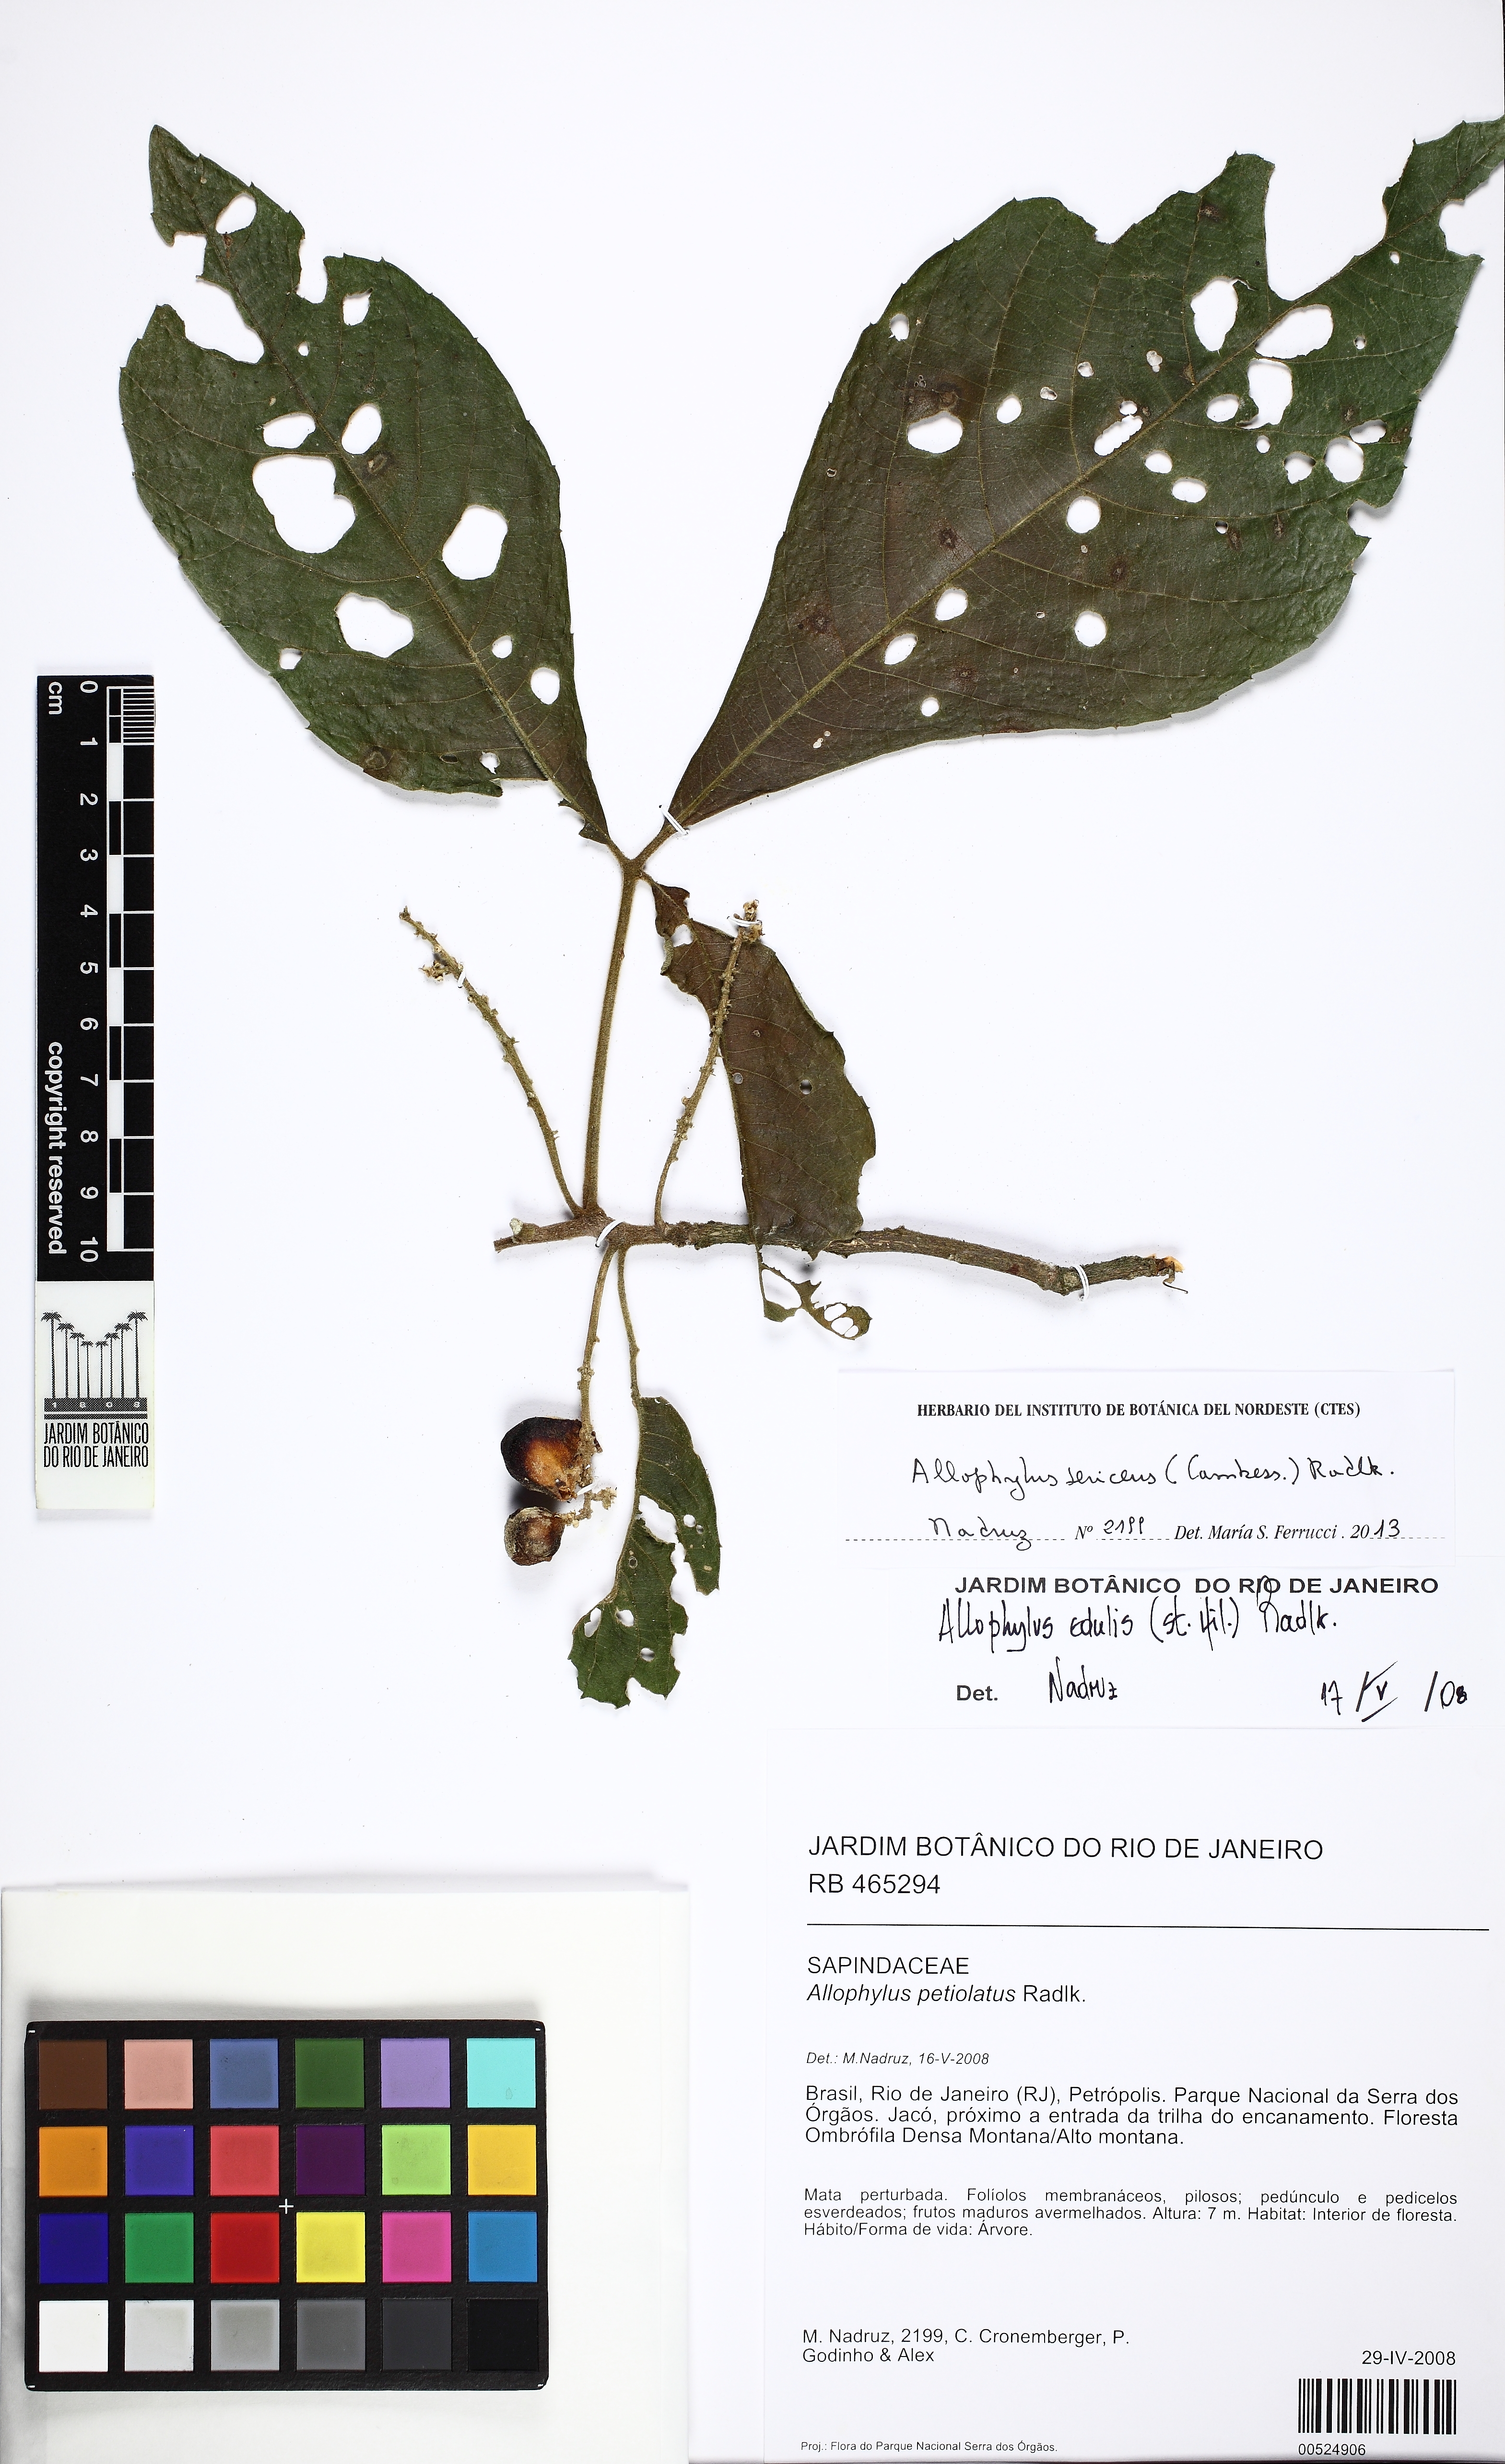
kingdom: Plantae
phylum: Tracheophyta
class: Magnoliopsida
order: Sapindales
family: Sapindaceae
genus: Allophylus
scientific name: Allophylus sericeus
